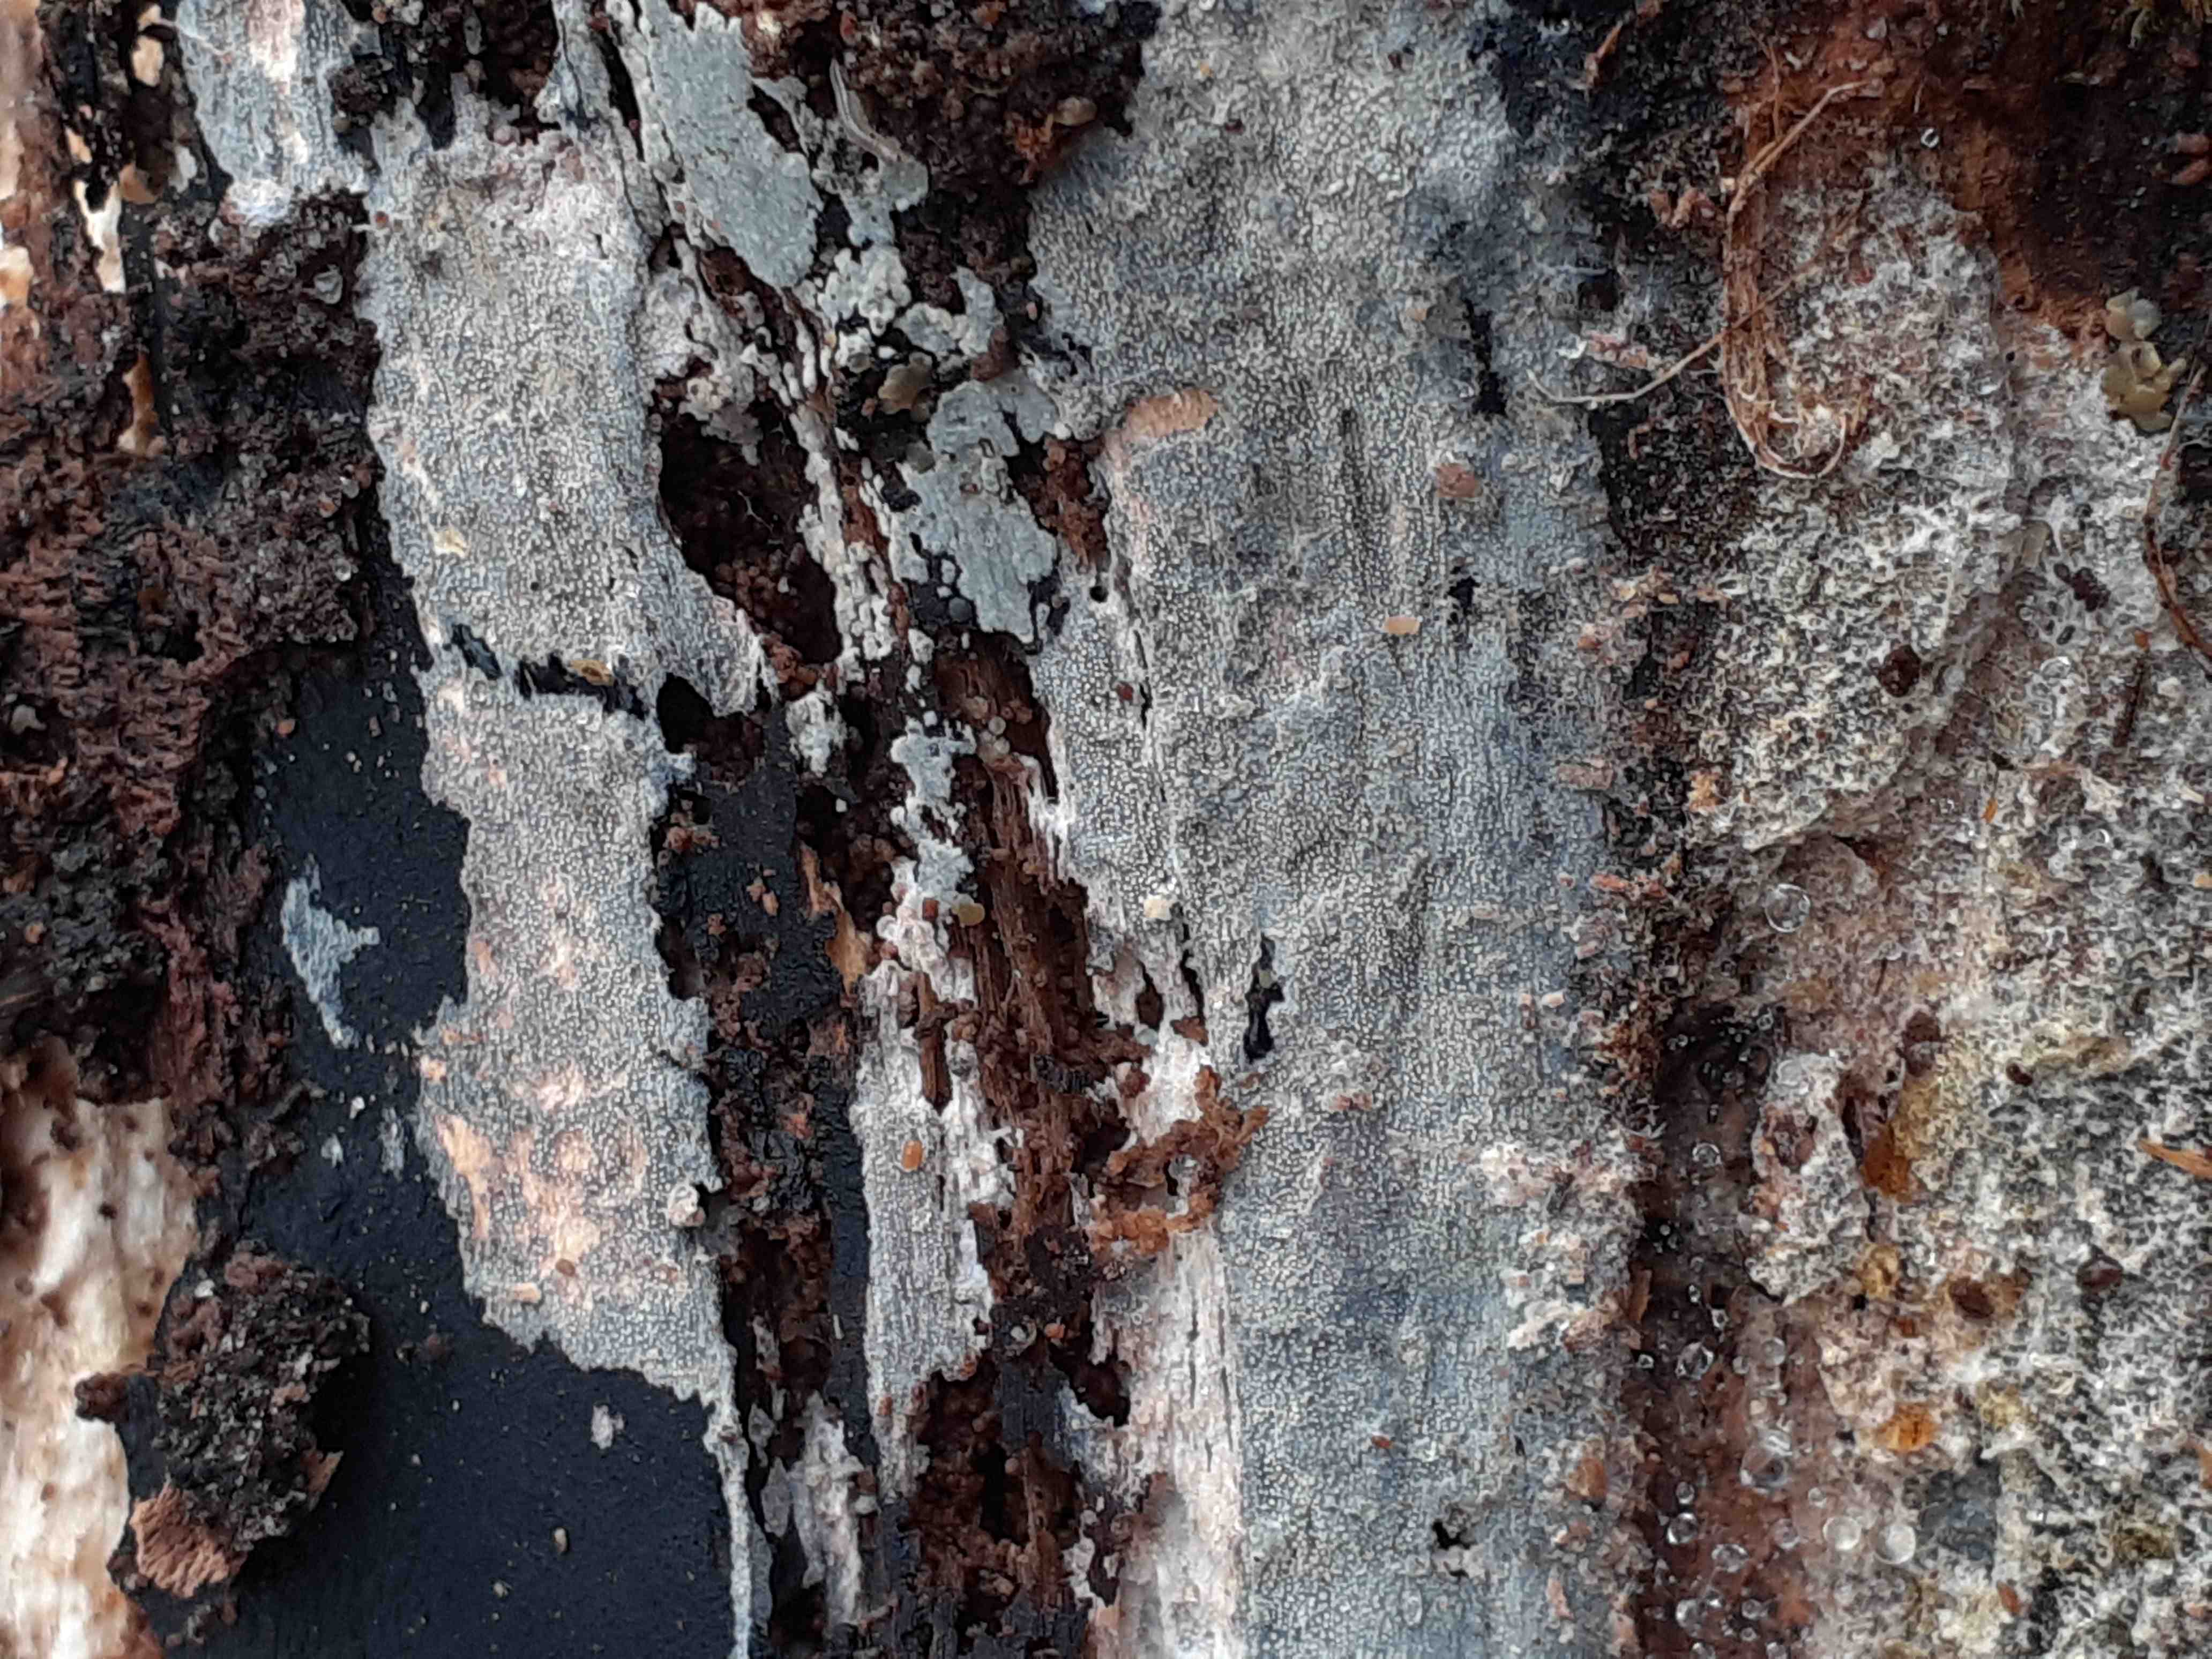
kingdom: Fungi
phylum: Basidiomycota
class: Agaricomycetes
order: Hymenochaetales
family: Rickenellaceae
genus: Resinicium
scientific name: Resinicium bicolor
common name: almindelig vokstand
